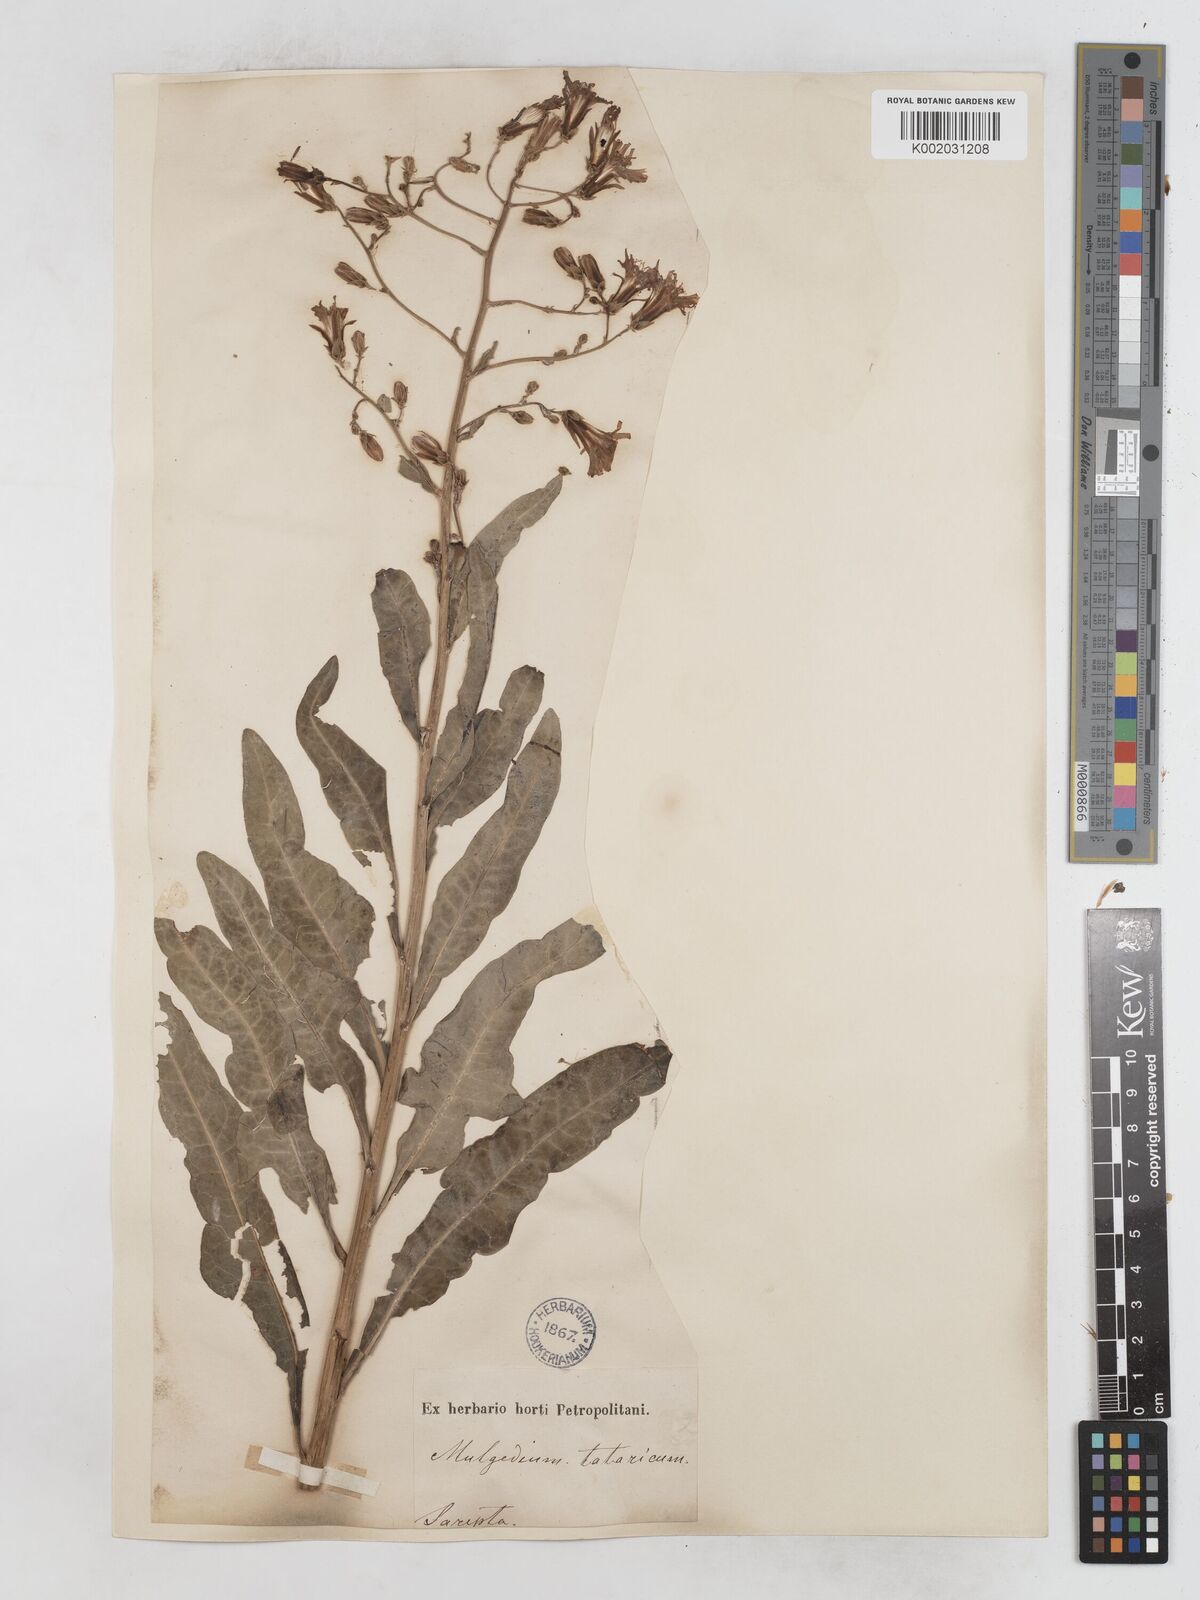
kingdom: Plantae
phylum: Tracheophyta
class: Magnoliopsida
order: Asterales
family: Asteraceae
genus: Lactuca
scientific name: Lactuca tatarica
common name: Blue lettuce
